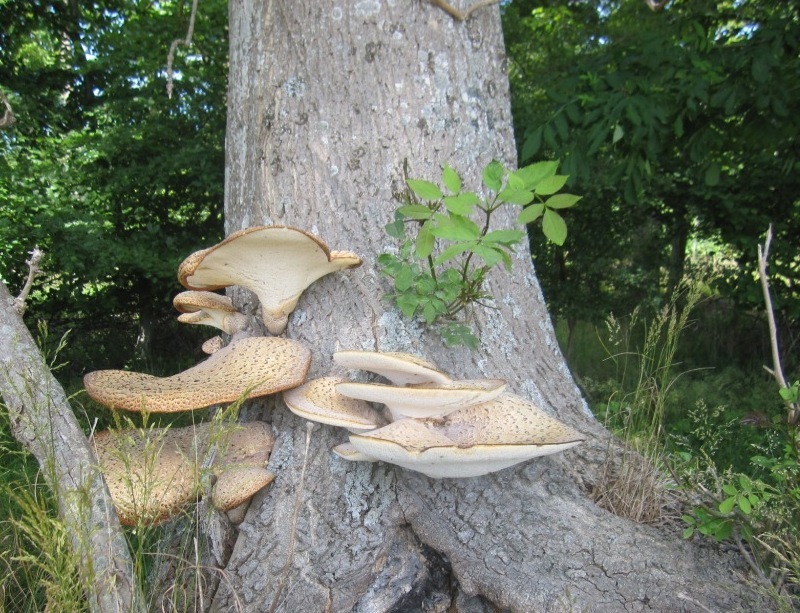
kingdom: Fungi
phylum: Basidiomycota
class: Agaricomycetes
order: Polyporales
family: Polyporaceae
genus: Cerioporus
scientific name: Cerioporus squamosus
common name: skællet stilkporesvamp
